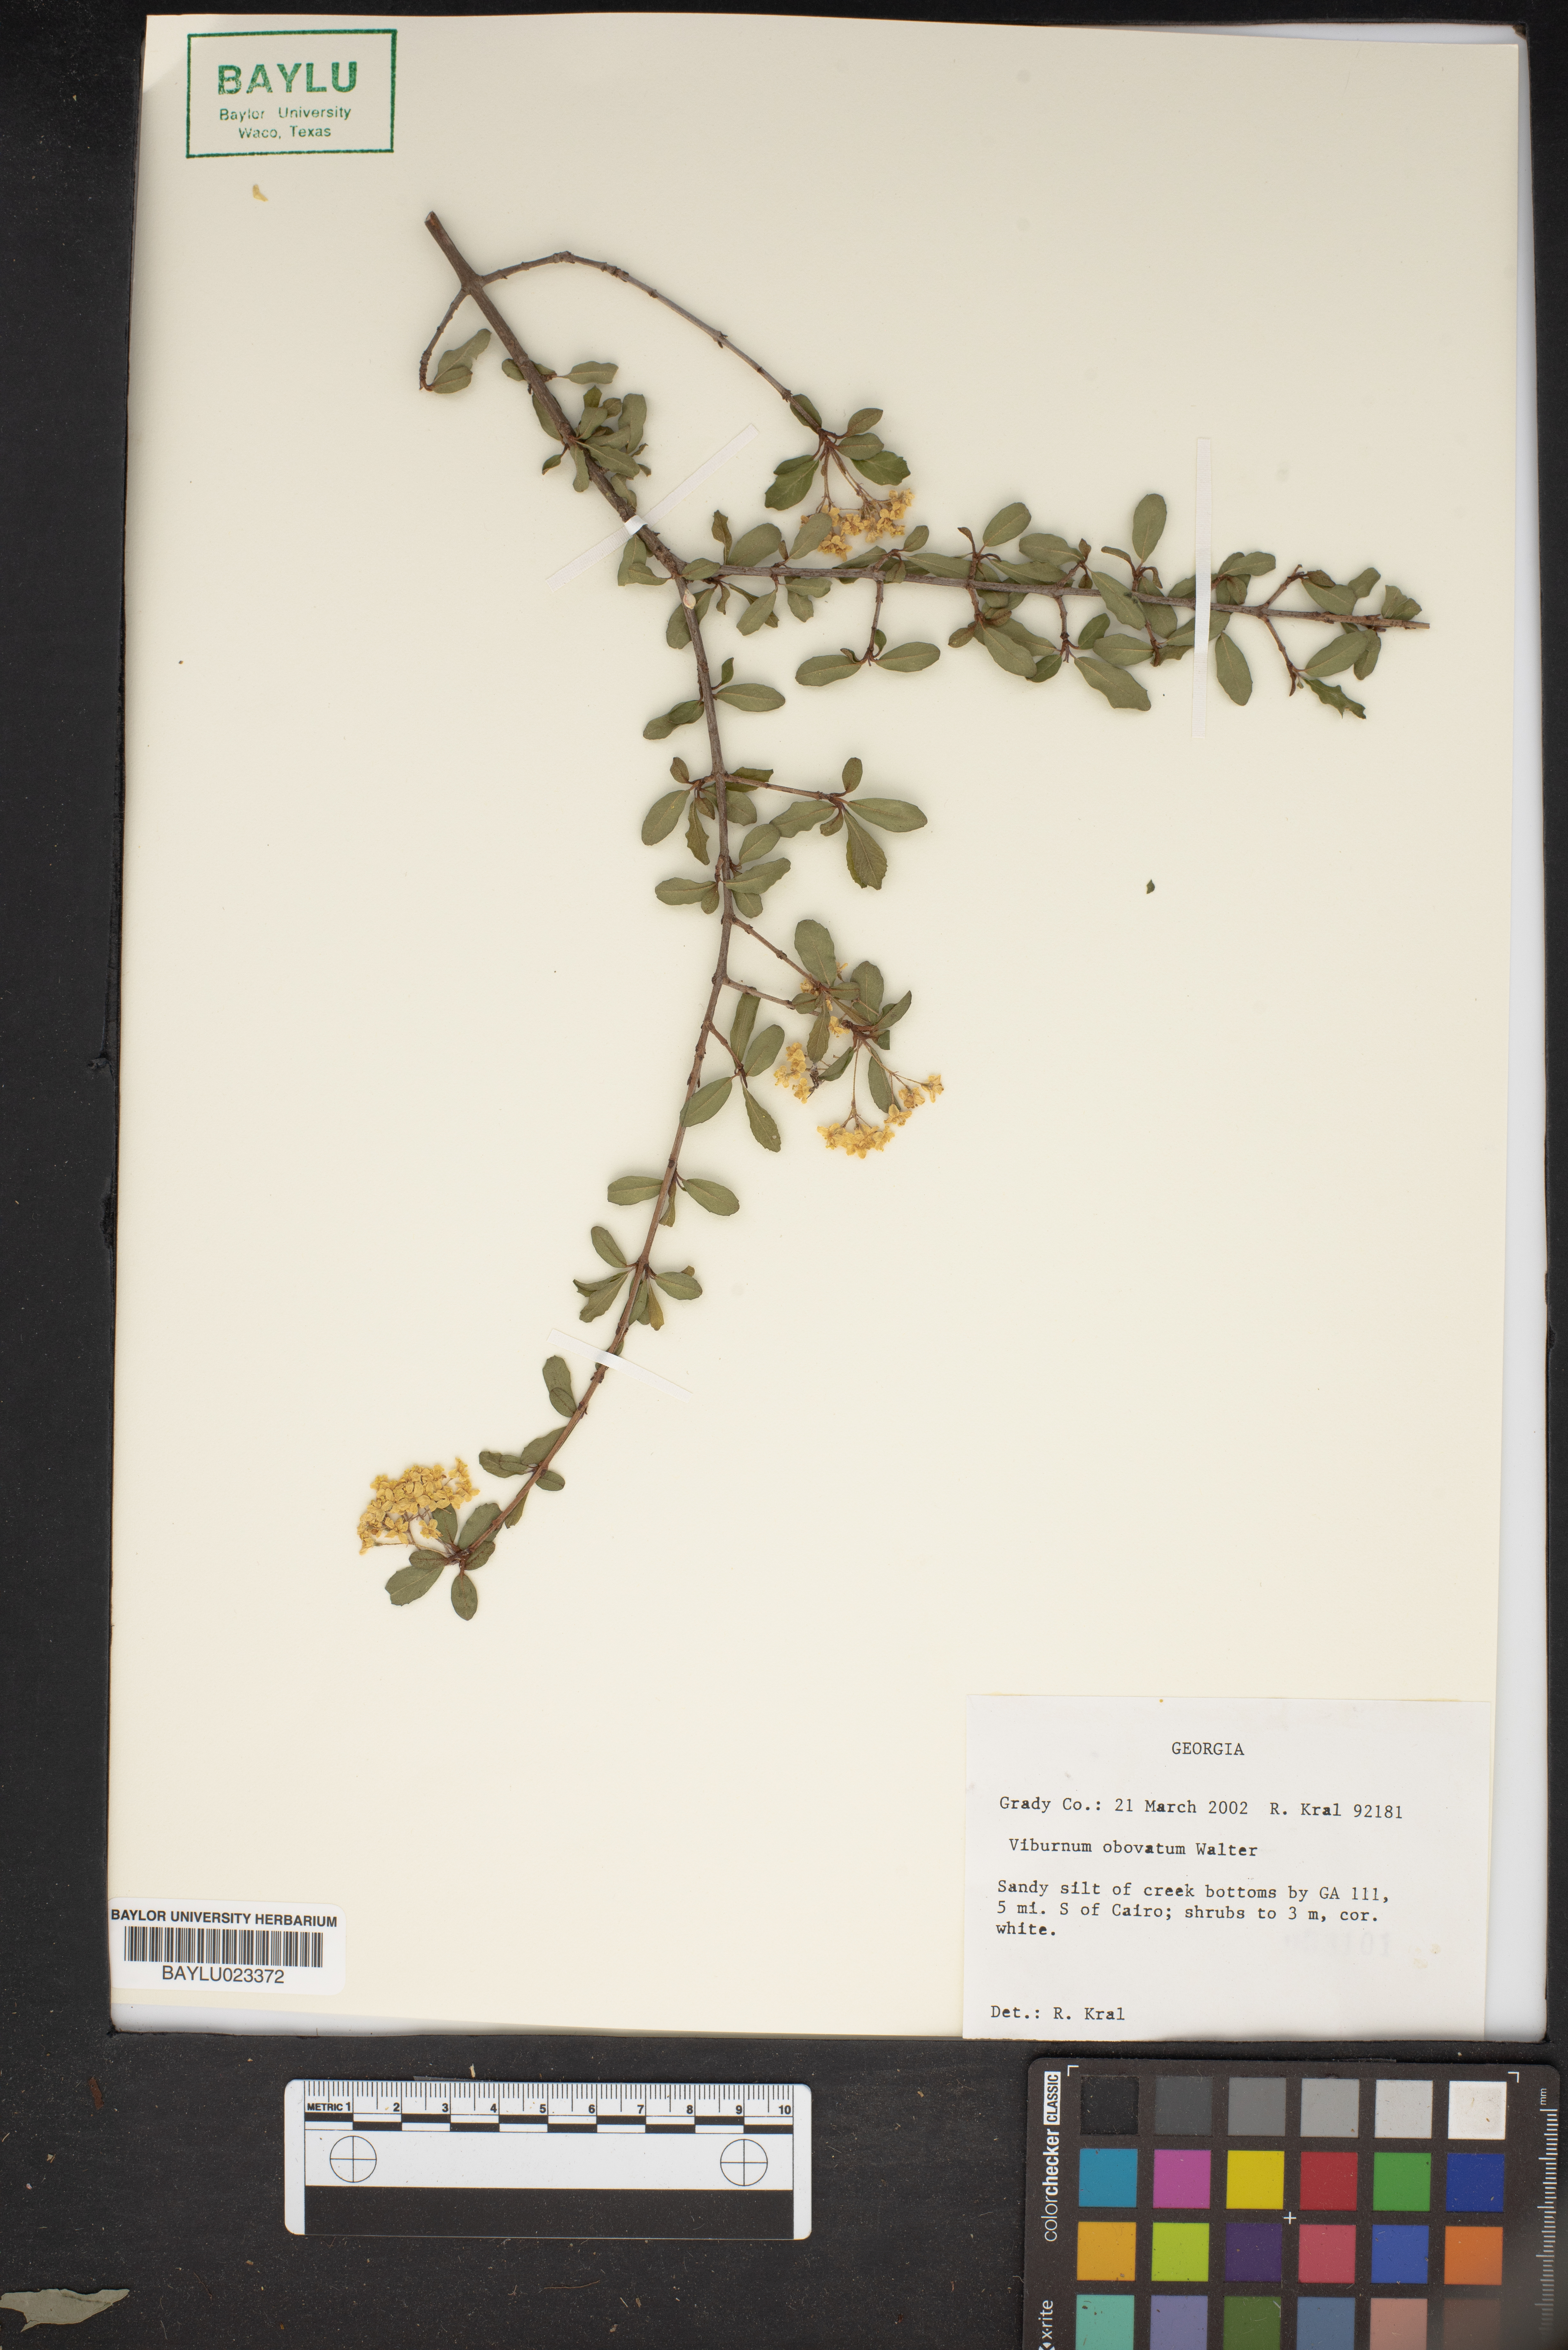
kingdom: Plantae
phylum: Tracheophyta
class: Magnoliopsida
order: Dipsacales
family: Viburnaceae
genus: Viburnum
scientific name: Viburnum obovatum
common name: Walter's viburnum
